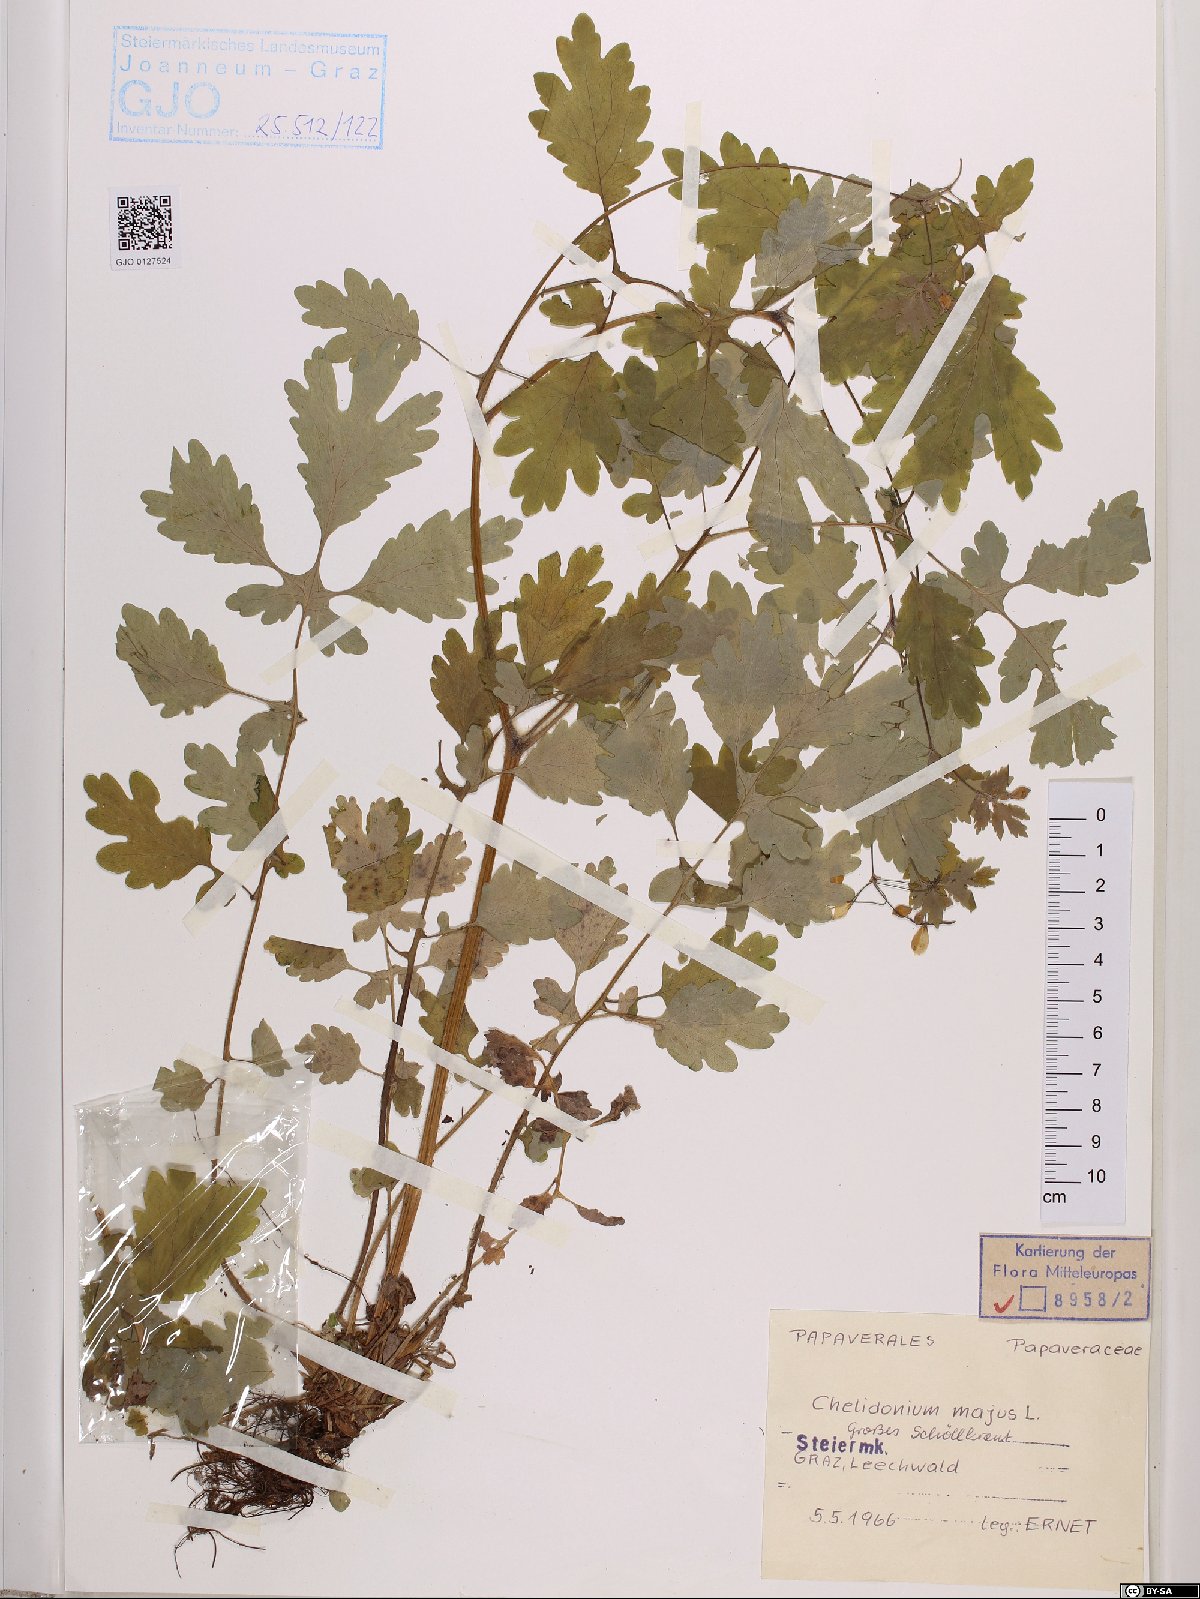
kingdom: Plantae
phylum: Tracheophyta
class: Magnoliopsida
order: Ranunculales
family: Papaveraceae
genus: Chelidonium
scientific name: Chelidonium majus
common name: Greater celandine
